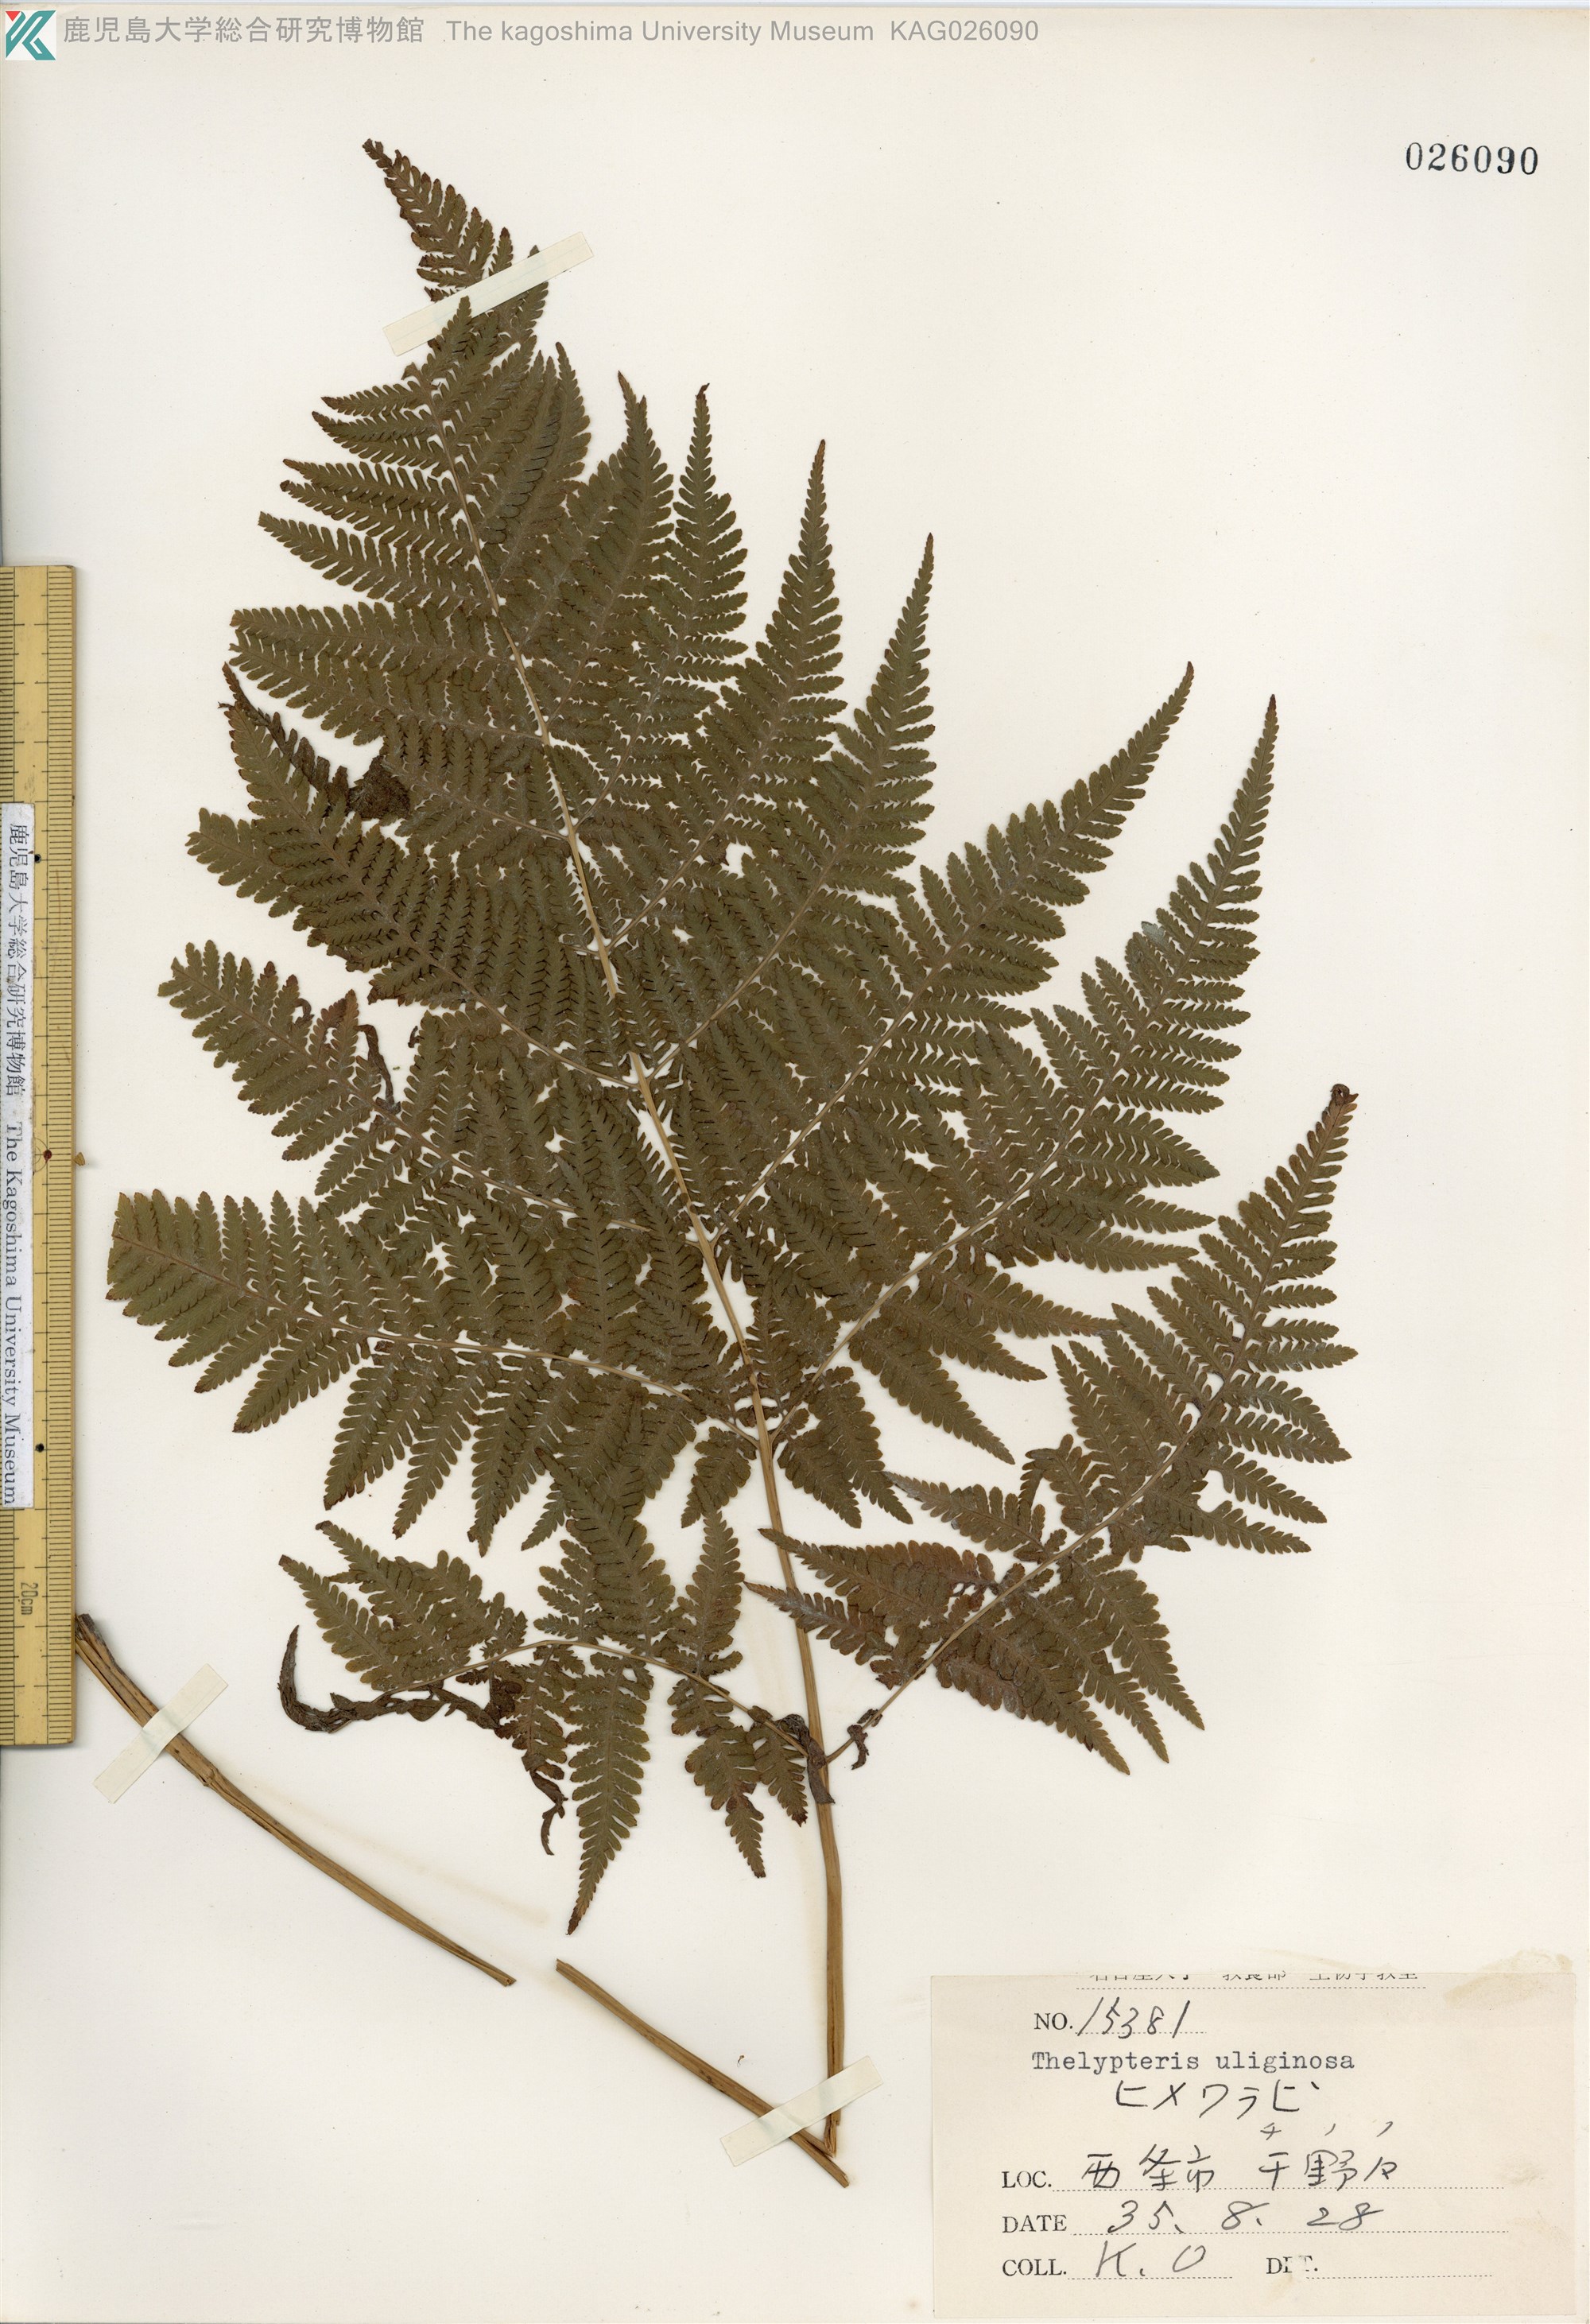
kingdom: Plantae
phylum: Tracheophyta
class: Polypodiopsida
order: Polypodiales
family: Thelypteridaceae
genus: Macrothelypteris
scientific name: Macrothelypteris oligophlebia
